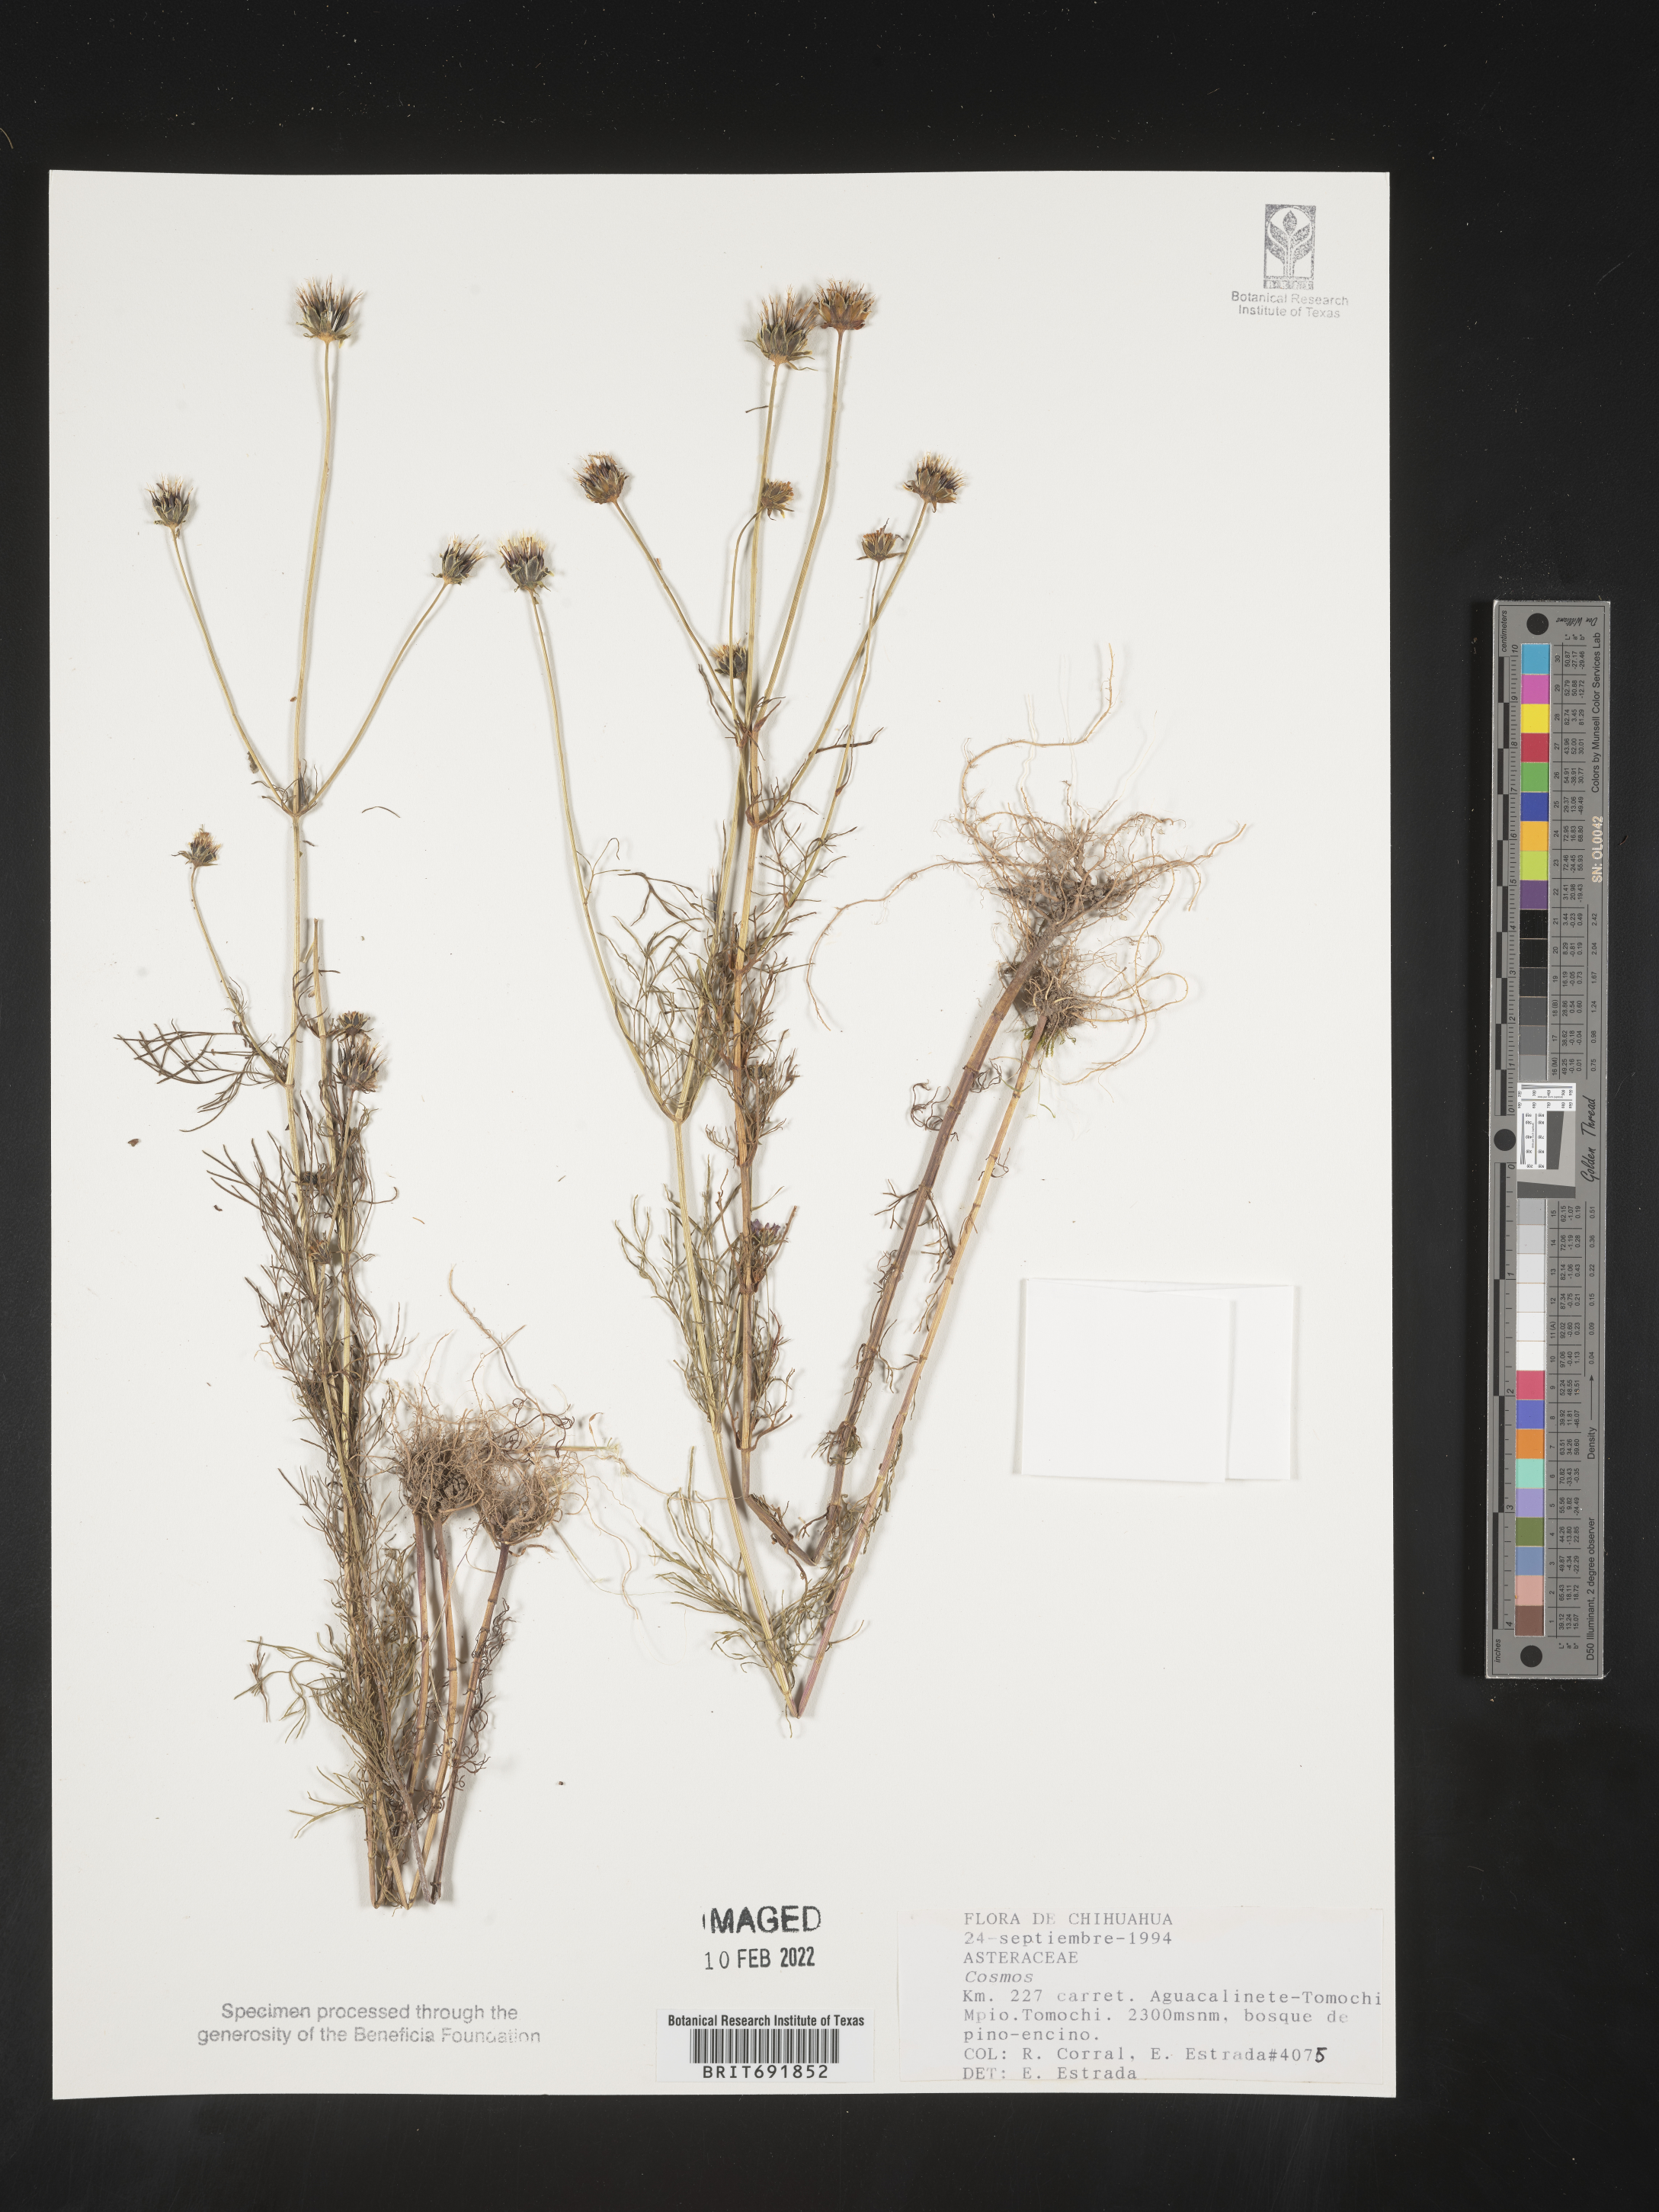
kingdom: Plantae
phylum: Tracheophyta
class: Magnoliopsida
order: Asterales
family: Asteraceae
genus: Cosmos
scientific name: Cosmos
